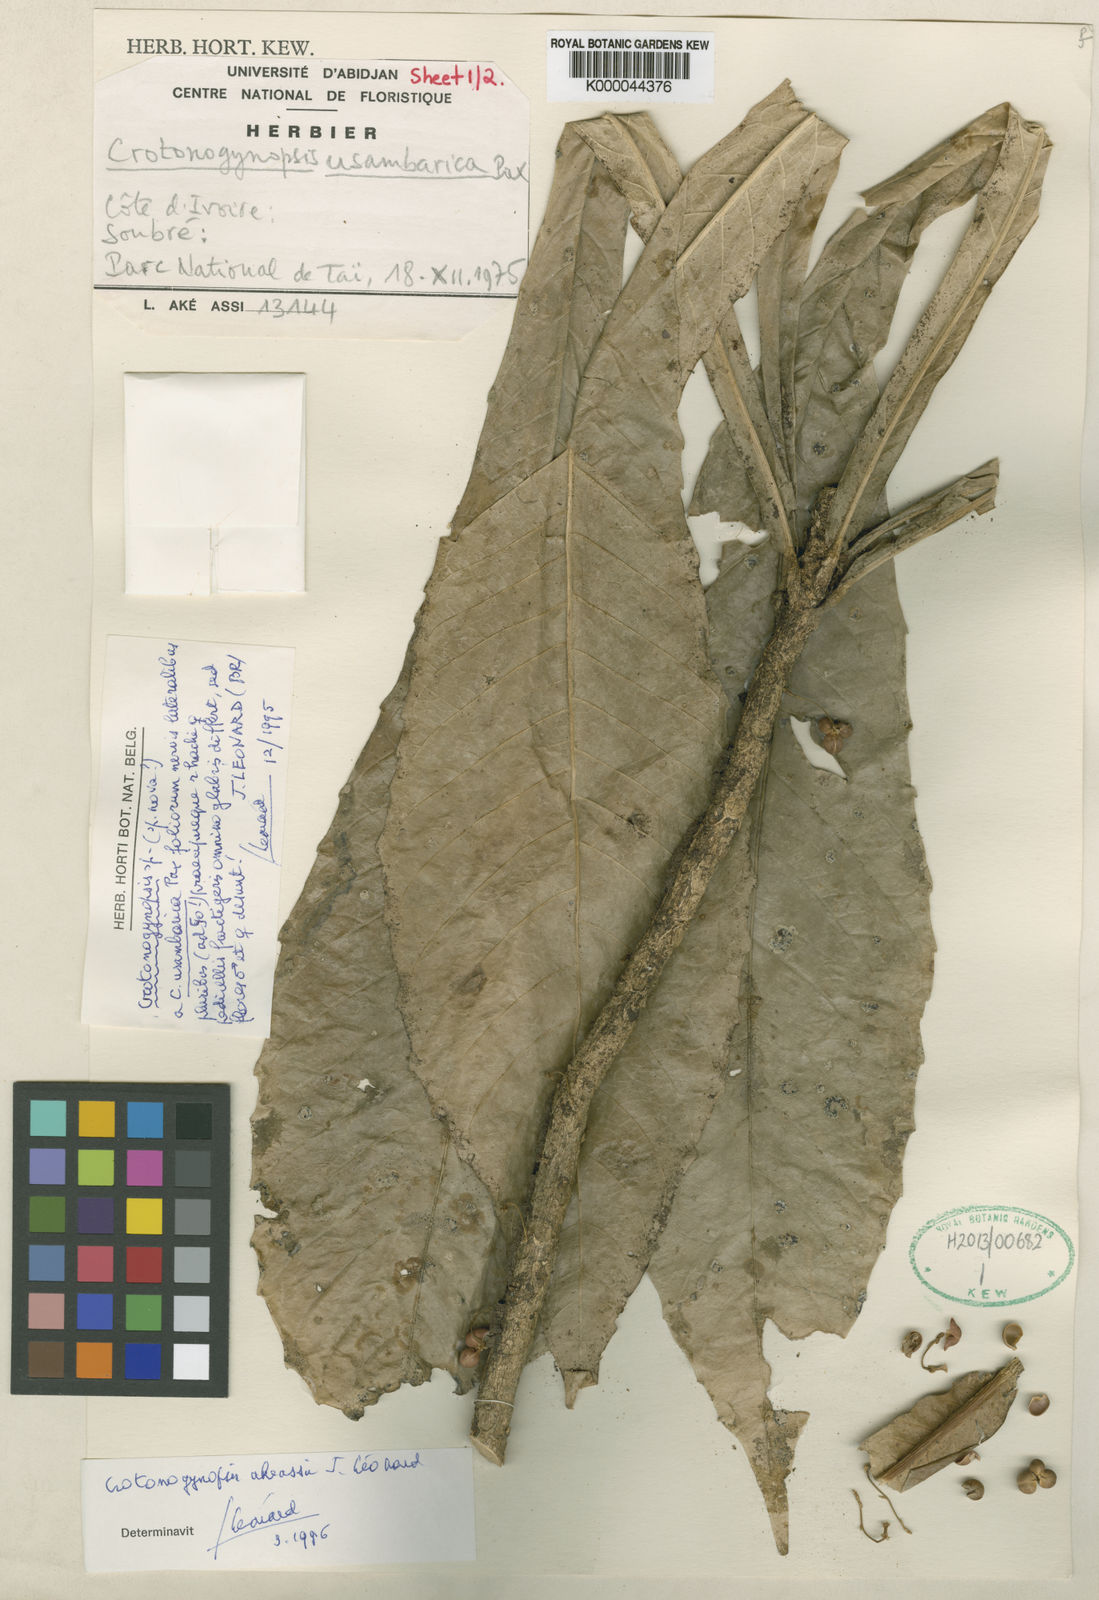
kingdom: Plantae
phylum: Tracheophyta
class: Magnoliopsida
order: Malpighiales
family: Euphorbiaceae
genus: Crotonogynopsis
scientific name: Crotonogynopsis
